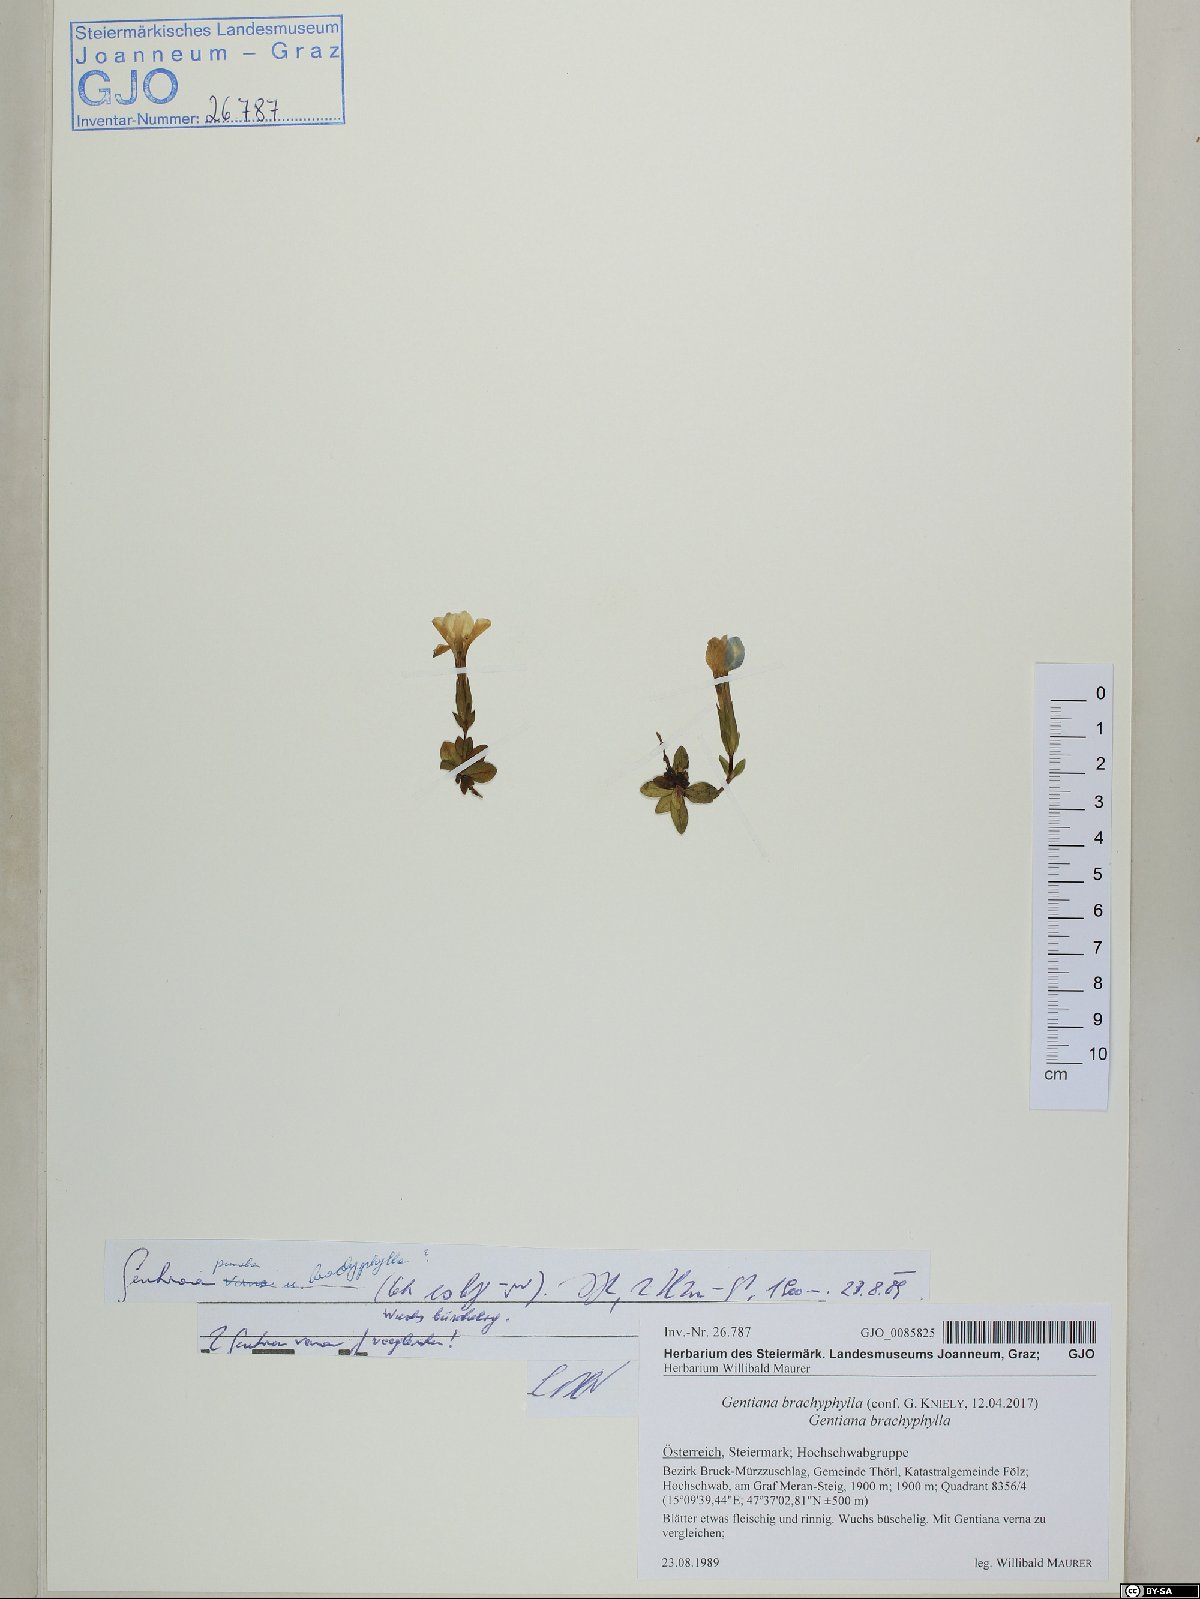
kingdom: Plantae
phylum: Tracheophyta
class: Magnoliopsida
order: Gentianales
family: Gentianaceae
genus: Gentiana
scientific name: Gentiana brachyphylla
